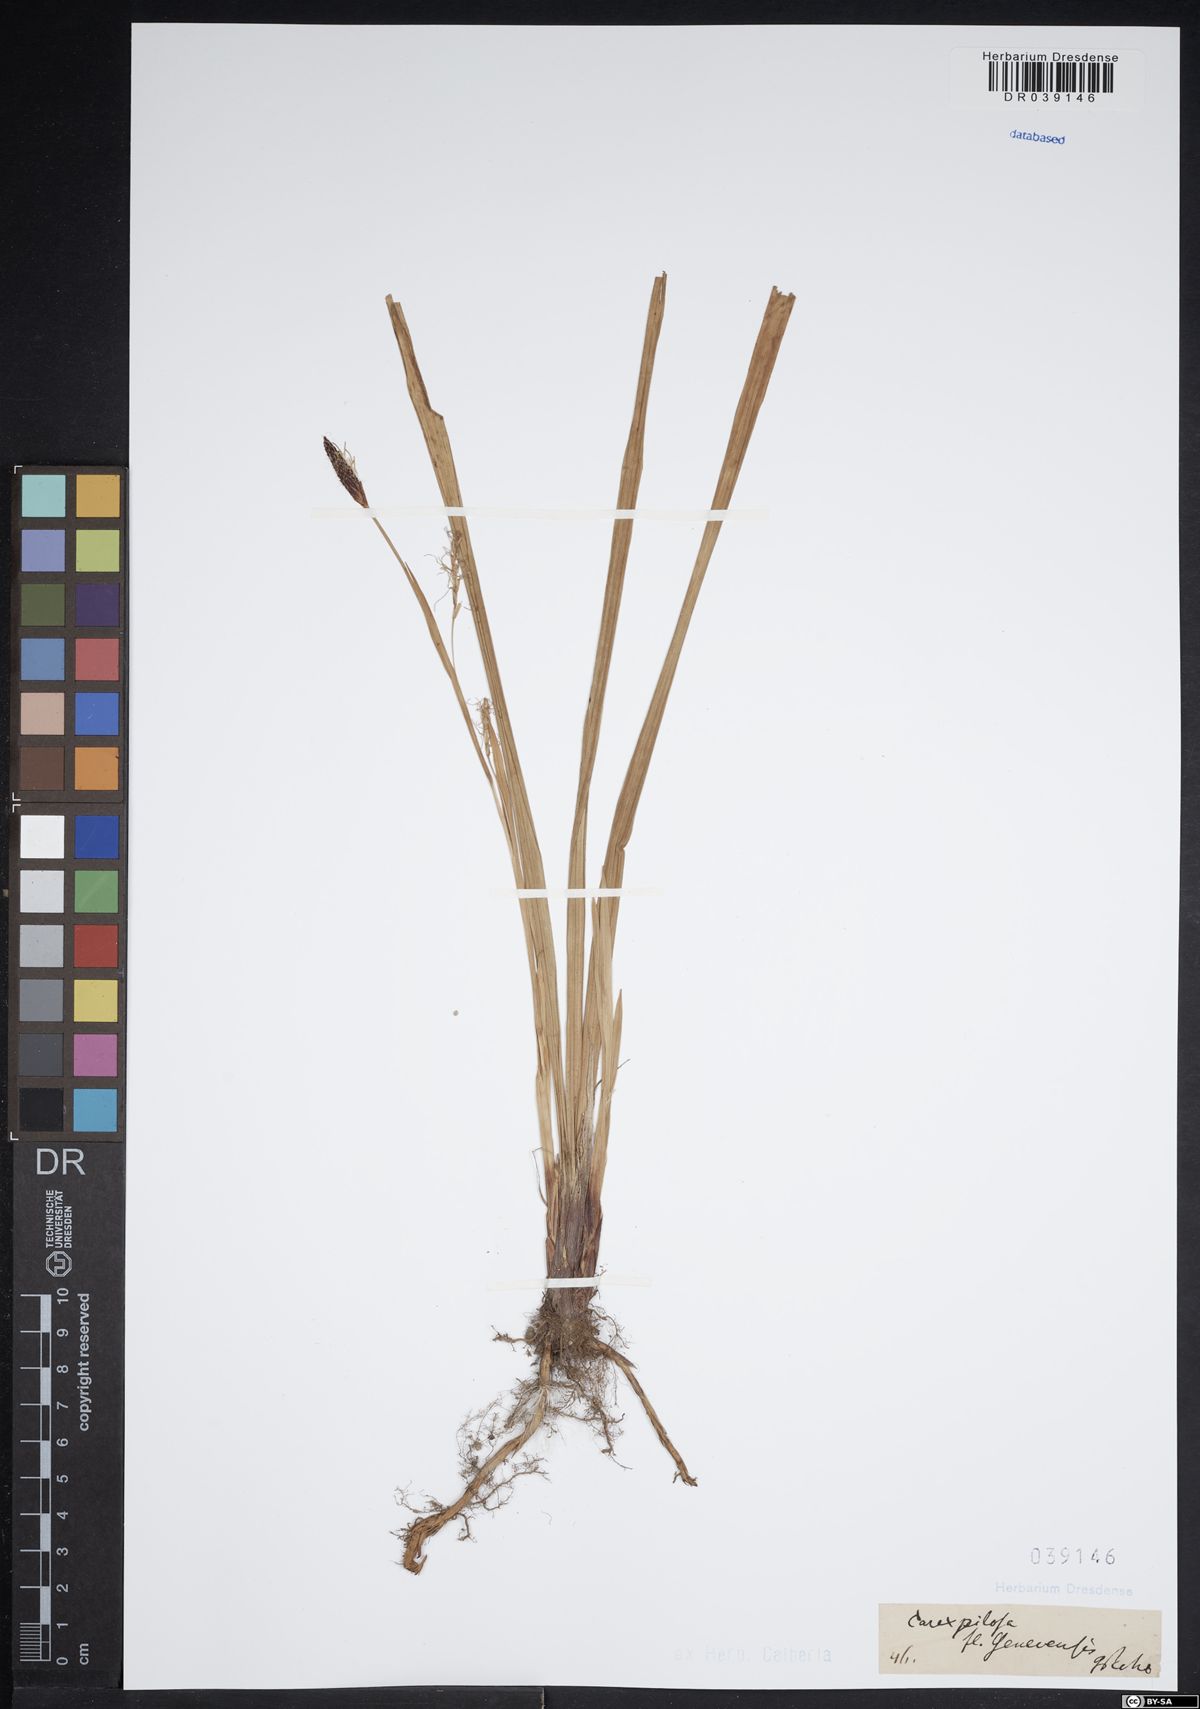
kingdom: Plantae
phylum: Tracheophyta
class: Liliopsida
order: Poales
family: Cyperaceae
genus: Carex
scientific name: Carex pilosa
